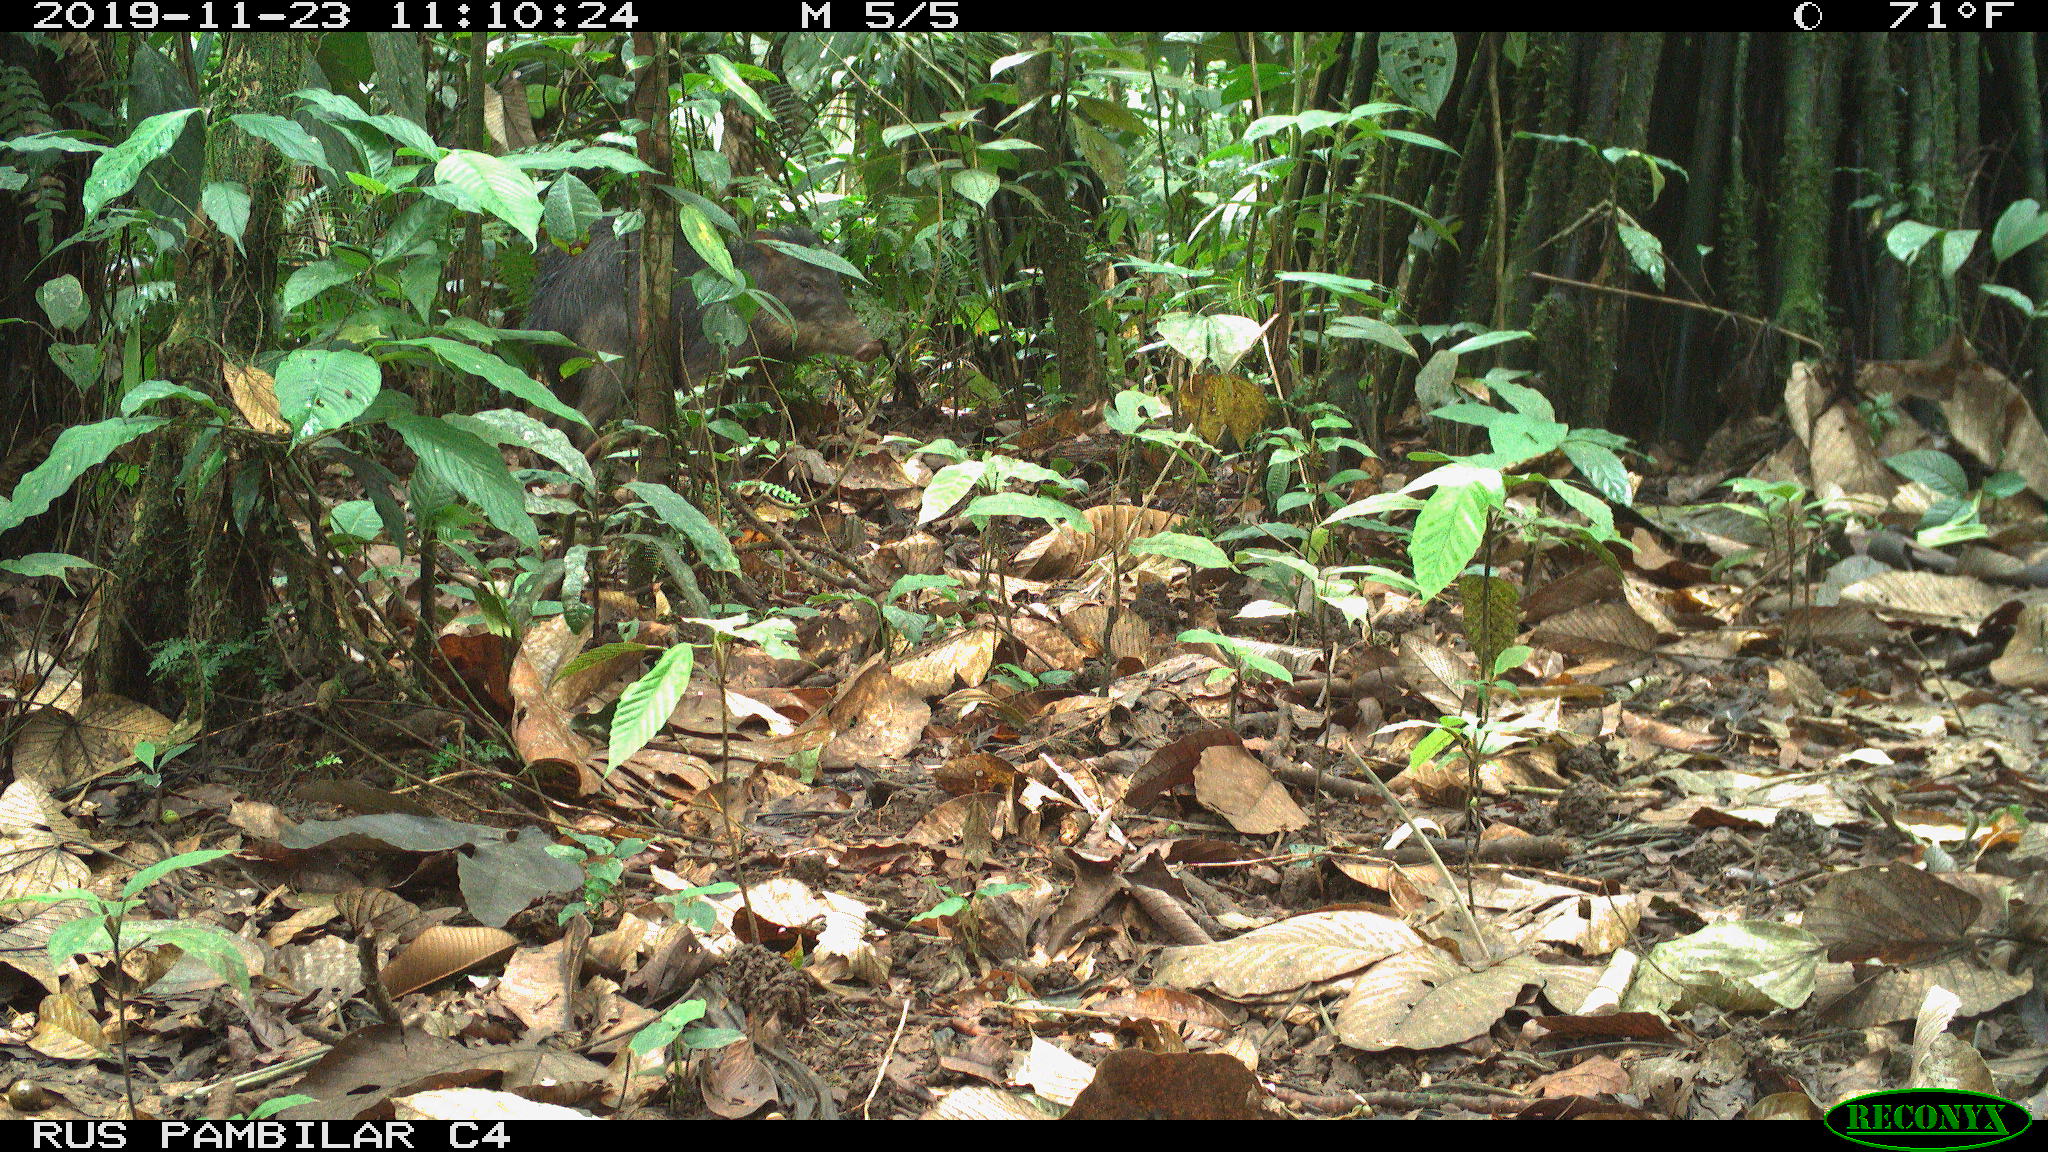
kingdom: Animalia
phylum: Chordata
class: Mammalia
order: Artiodactyla
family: Tayassuidae
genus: Tayassu
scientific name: Tayassu pecari
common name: White-lipped peccary
